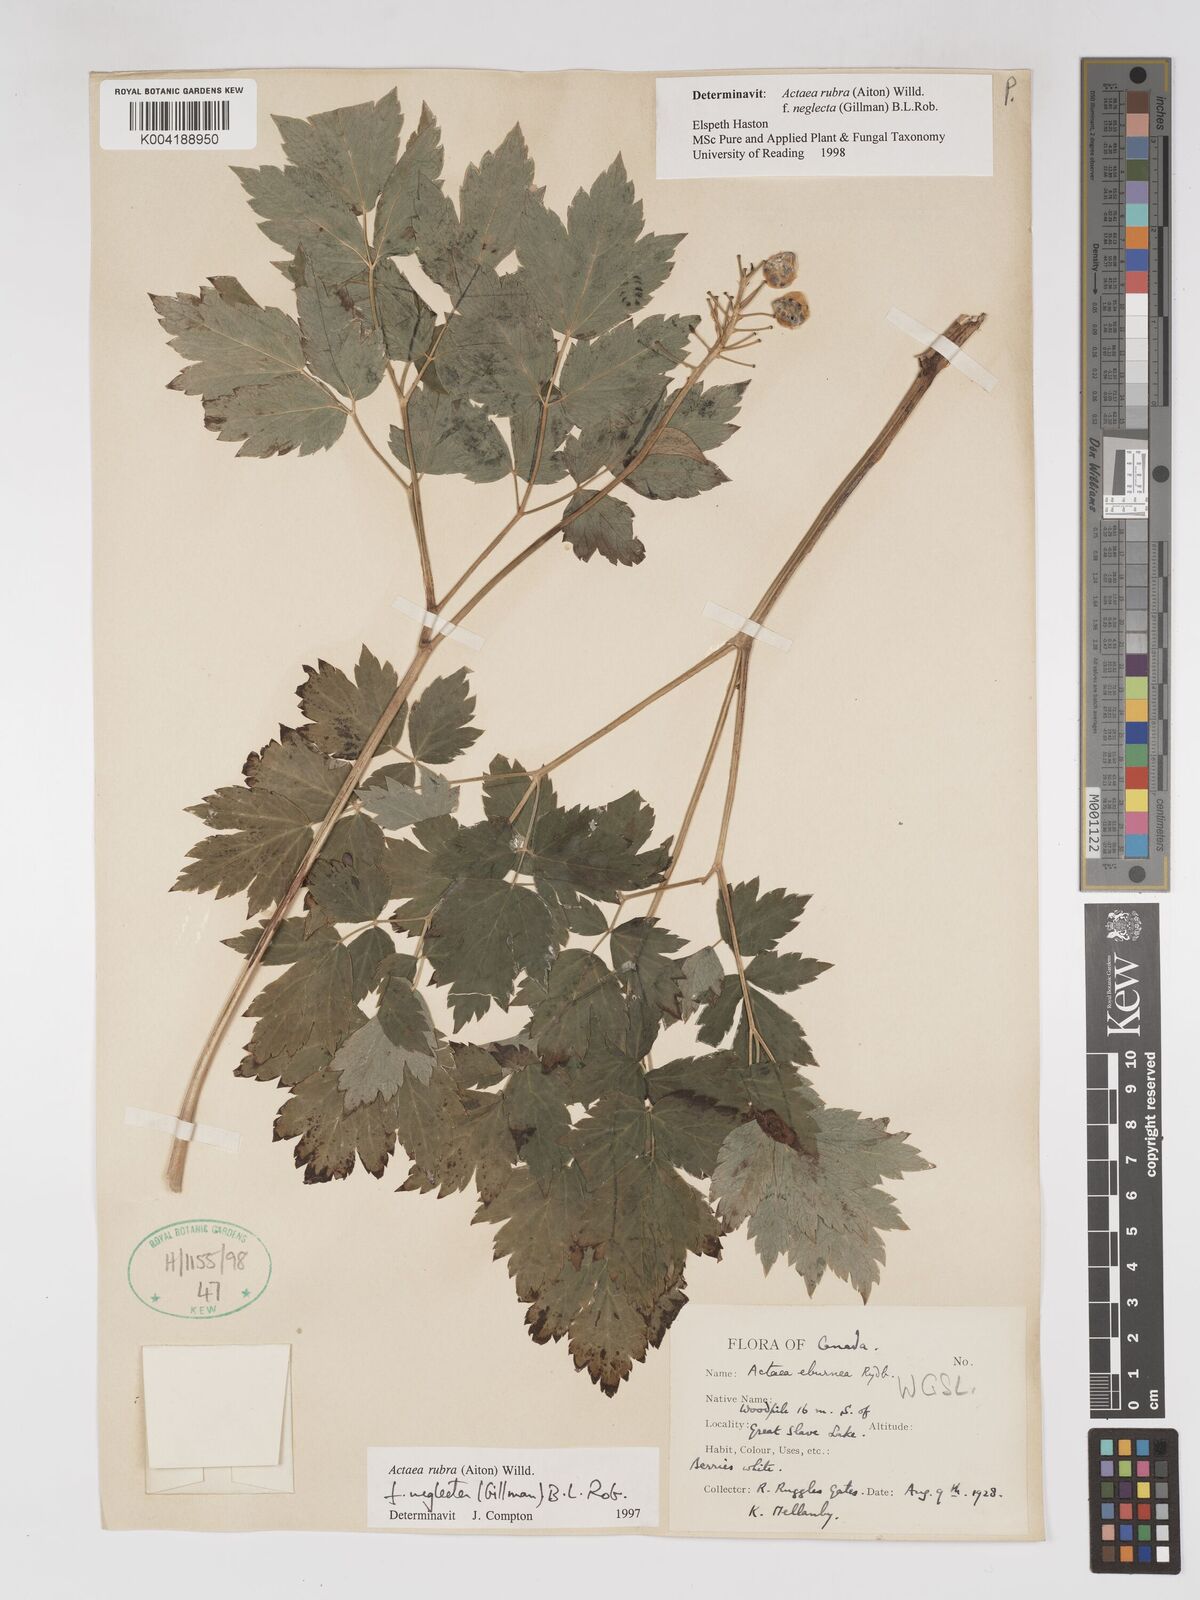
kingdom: Plantae
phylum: Tracheophyta
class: Magnoliopsida
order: Ranunculales
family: Ranunculaceae
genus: Actaea
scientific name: Actaea rubra
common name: Red baneberry
